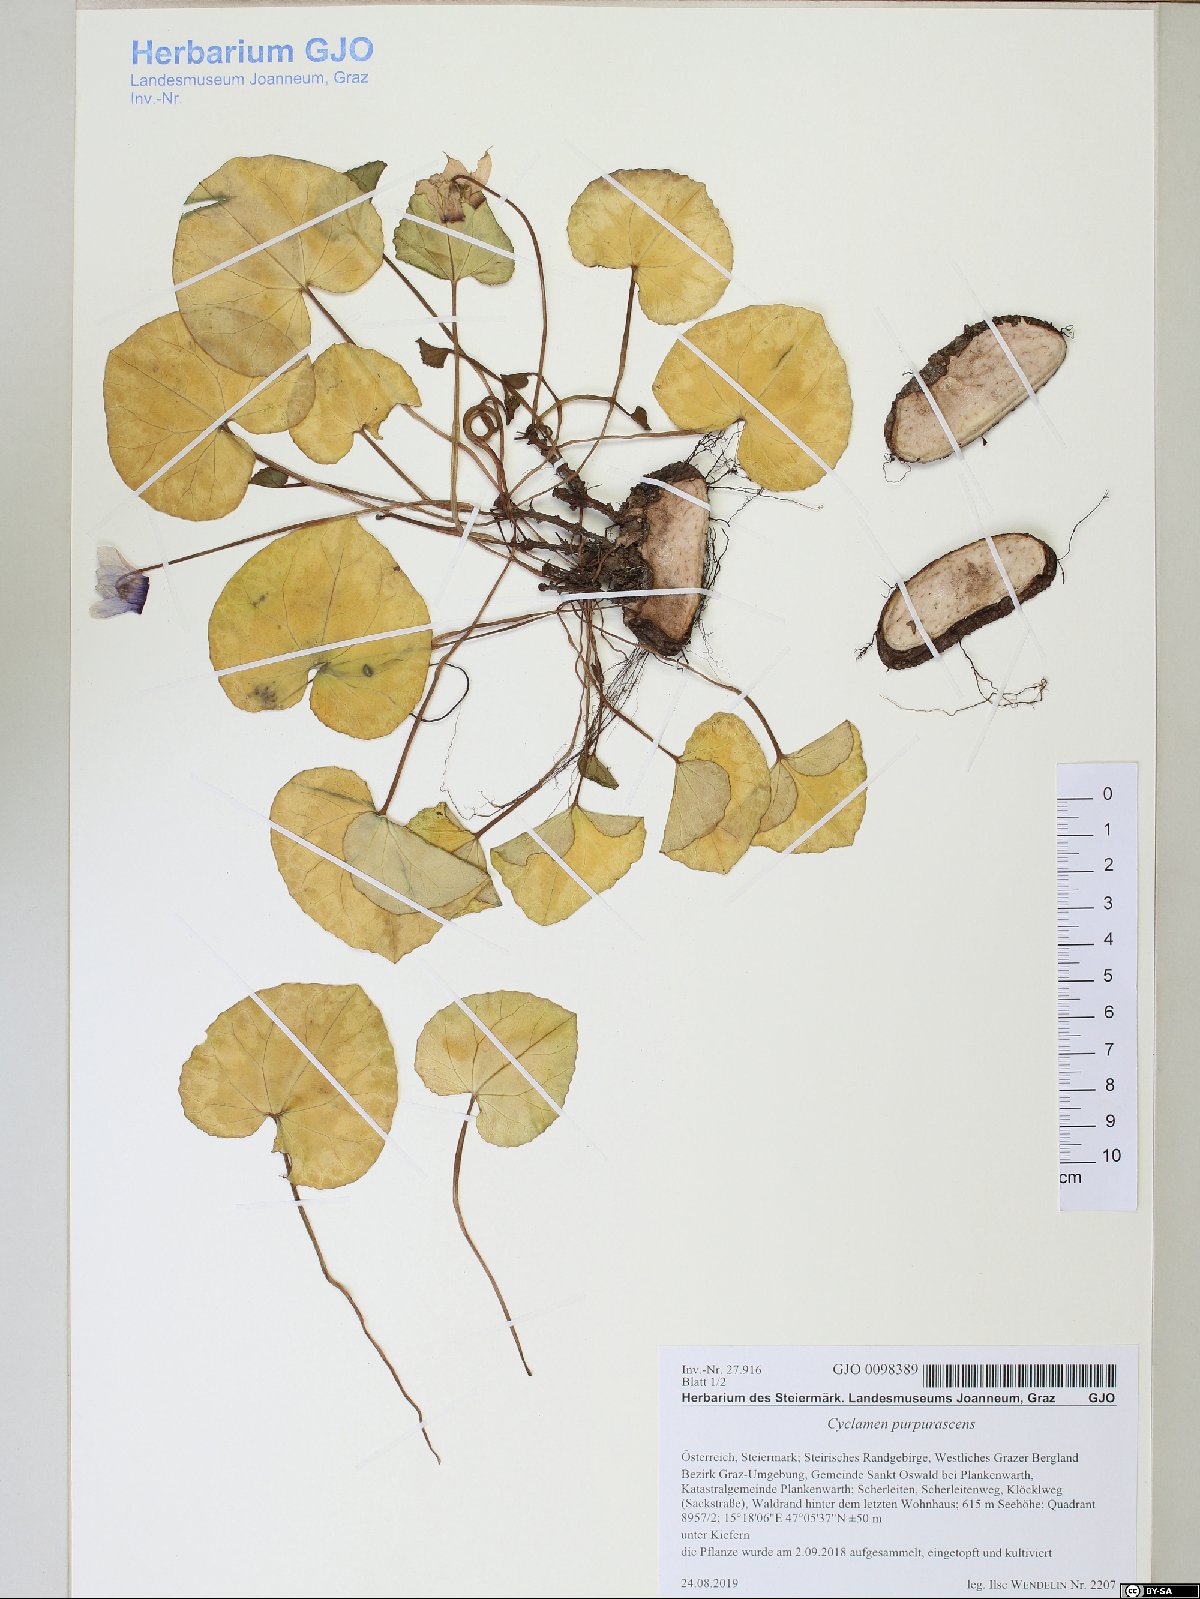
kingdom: Plantae
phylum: Tracheophyta
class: Magnoliopsida
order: Ericales
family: Primulaceae
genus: Cyclamen
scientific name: Cyclamen purpurascens
